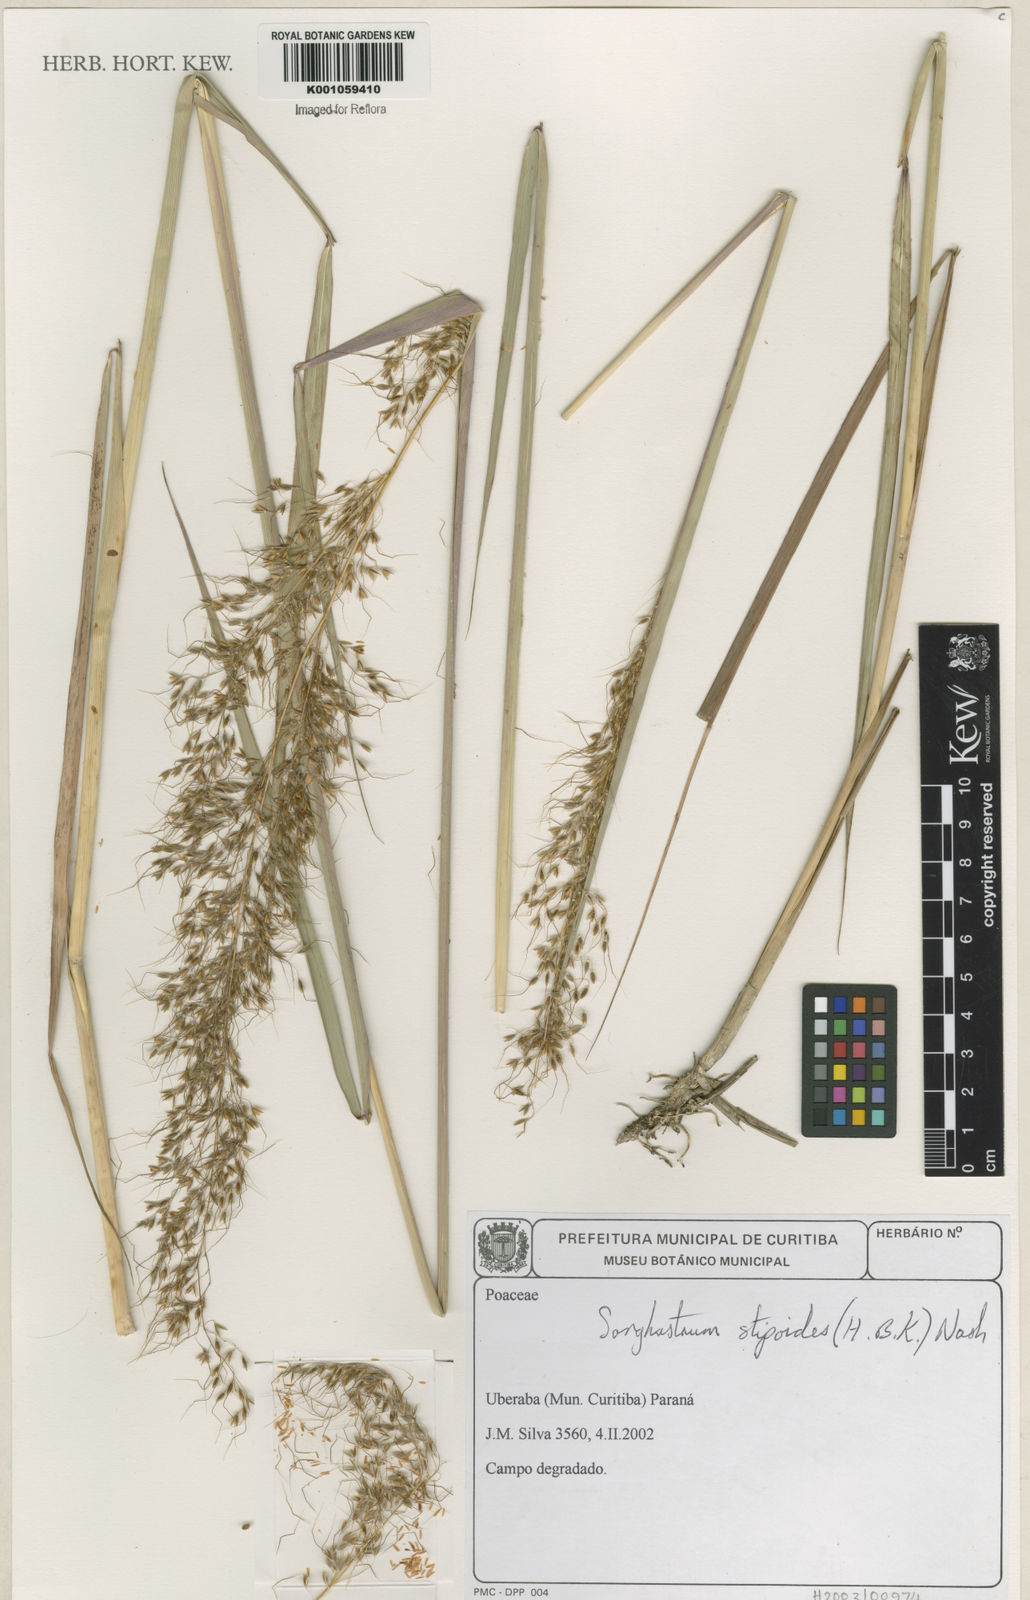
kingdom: Plantae
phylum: Tracheophyta
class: Liliopsida
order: Poales
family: Poaceae
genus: Sorghastrum
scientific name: Sorghastrum stipoides
